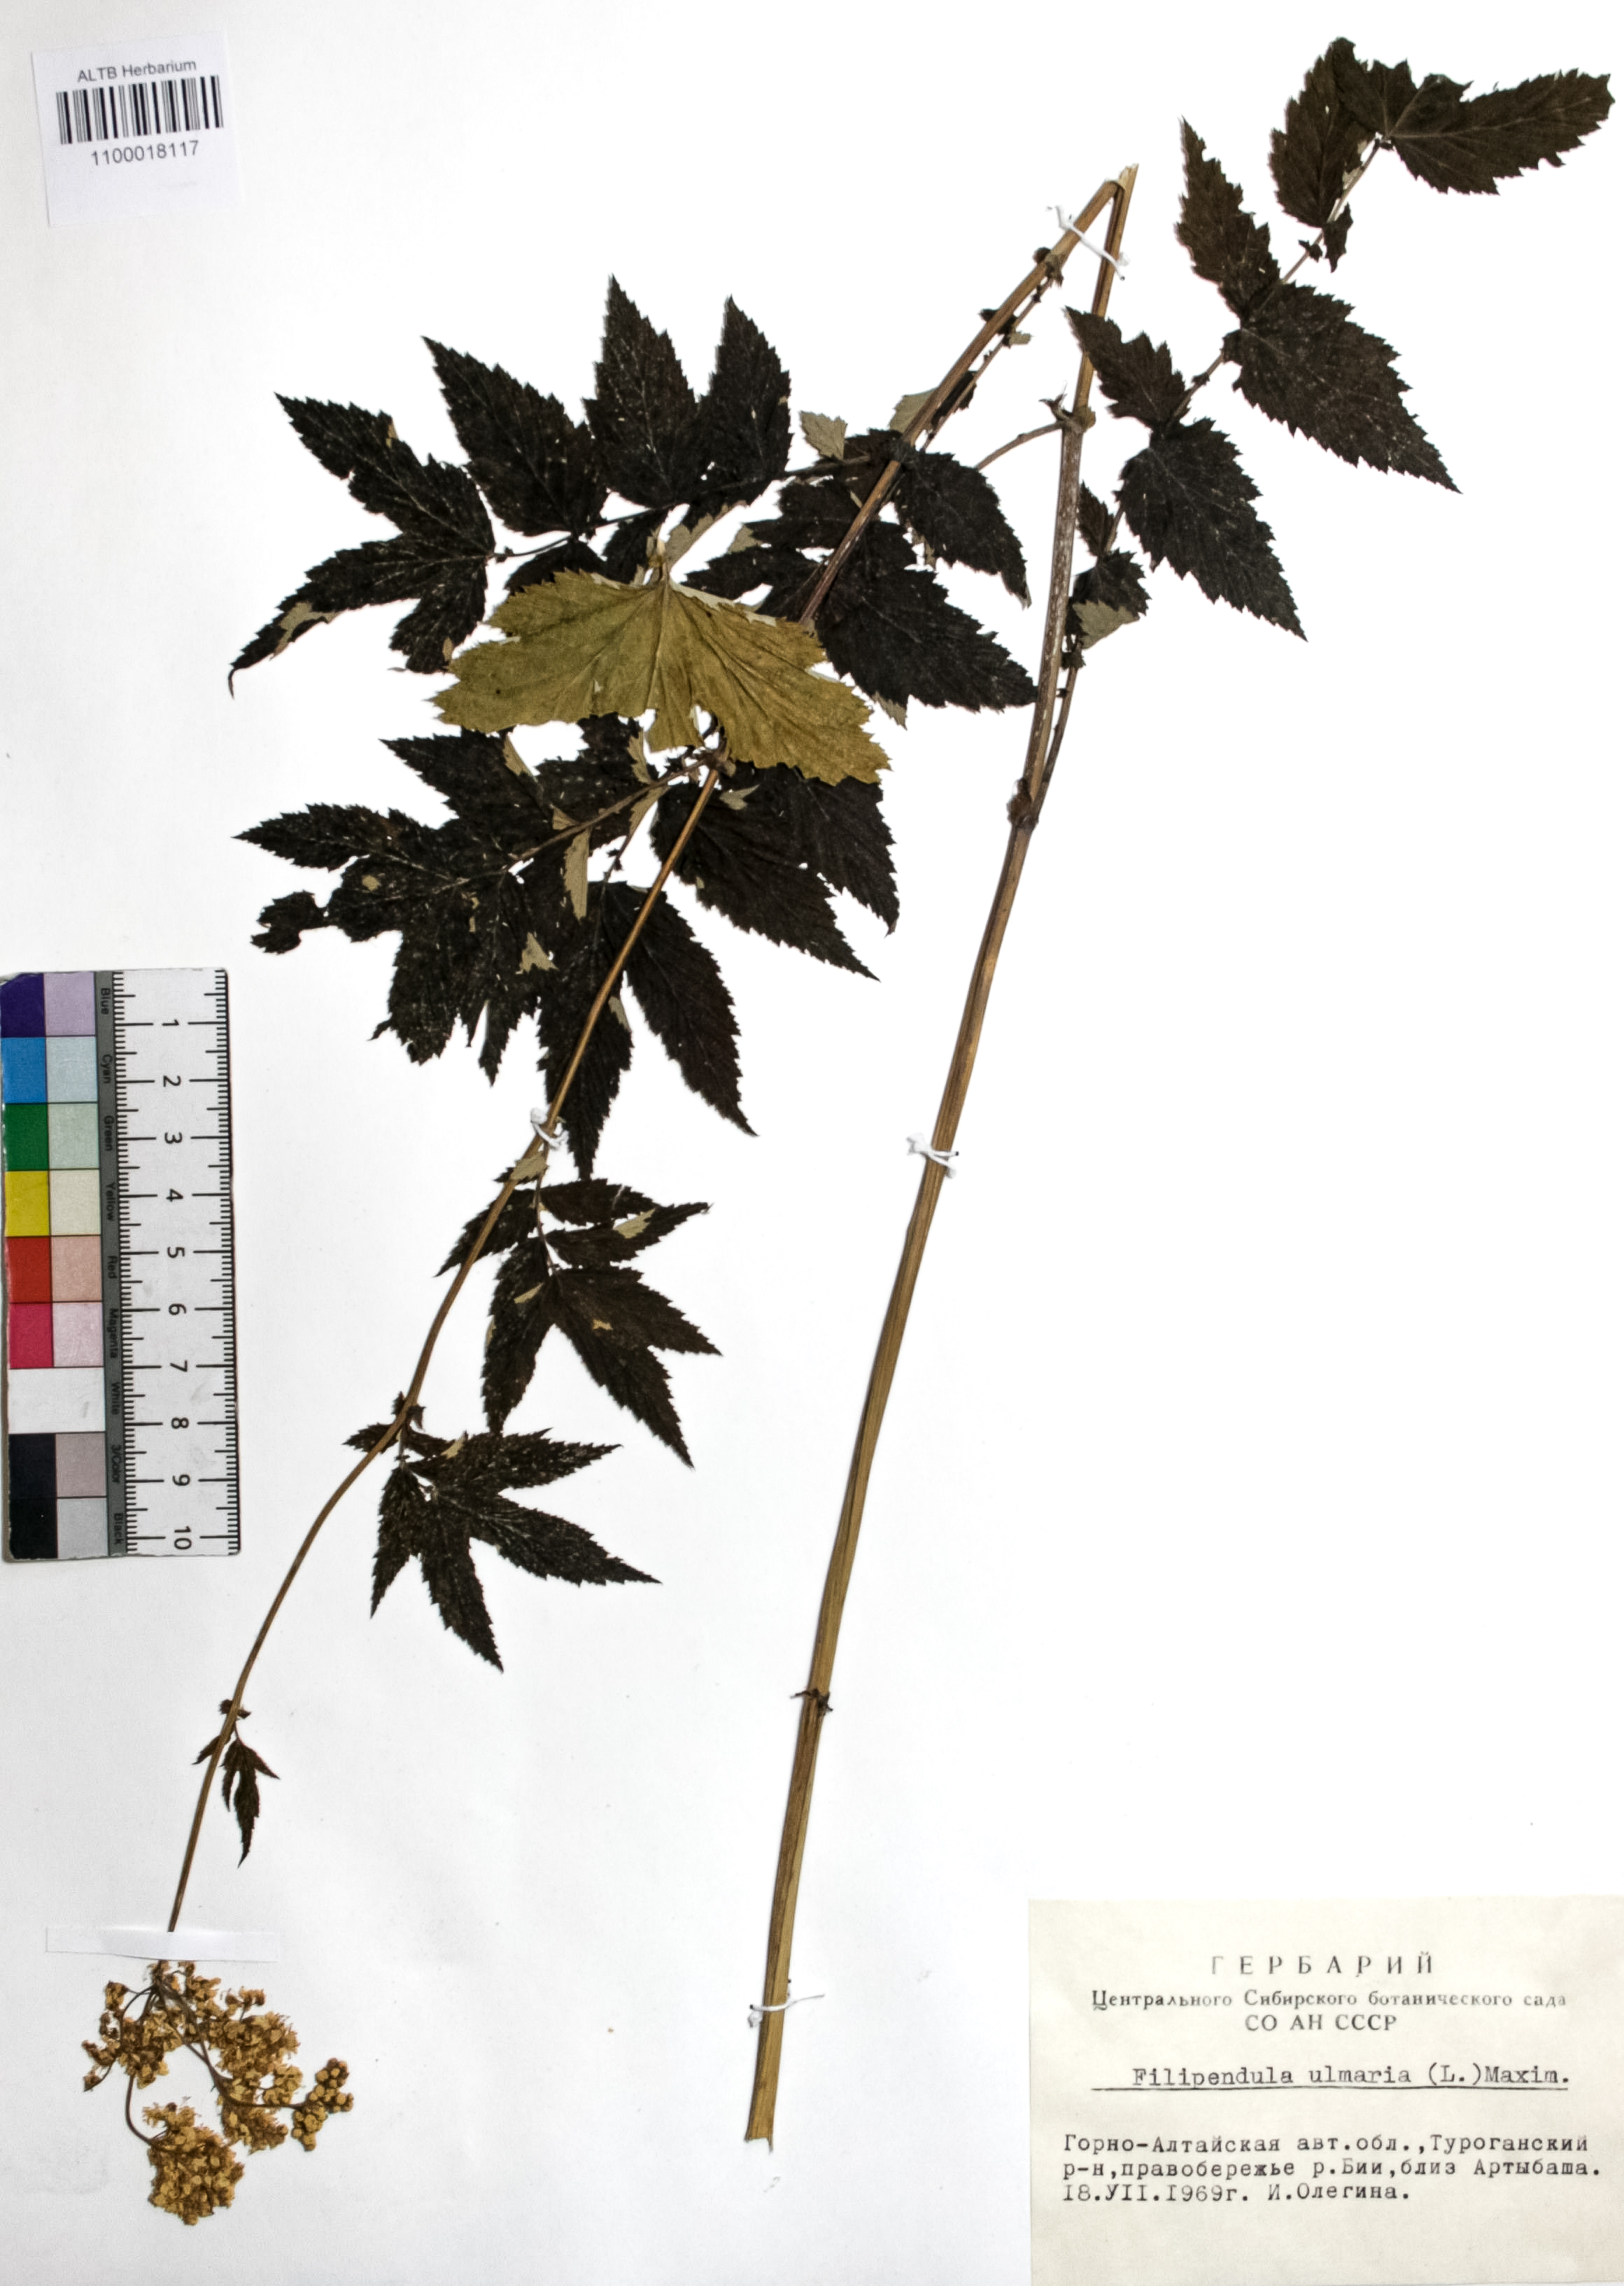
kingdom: Plantae
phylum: Tracheophyta
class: Magnoliopsida
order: Rosales
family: Rosaceae
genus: Filipendula
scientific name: Filipendula ulmaria
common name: Meadowsweet
